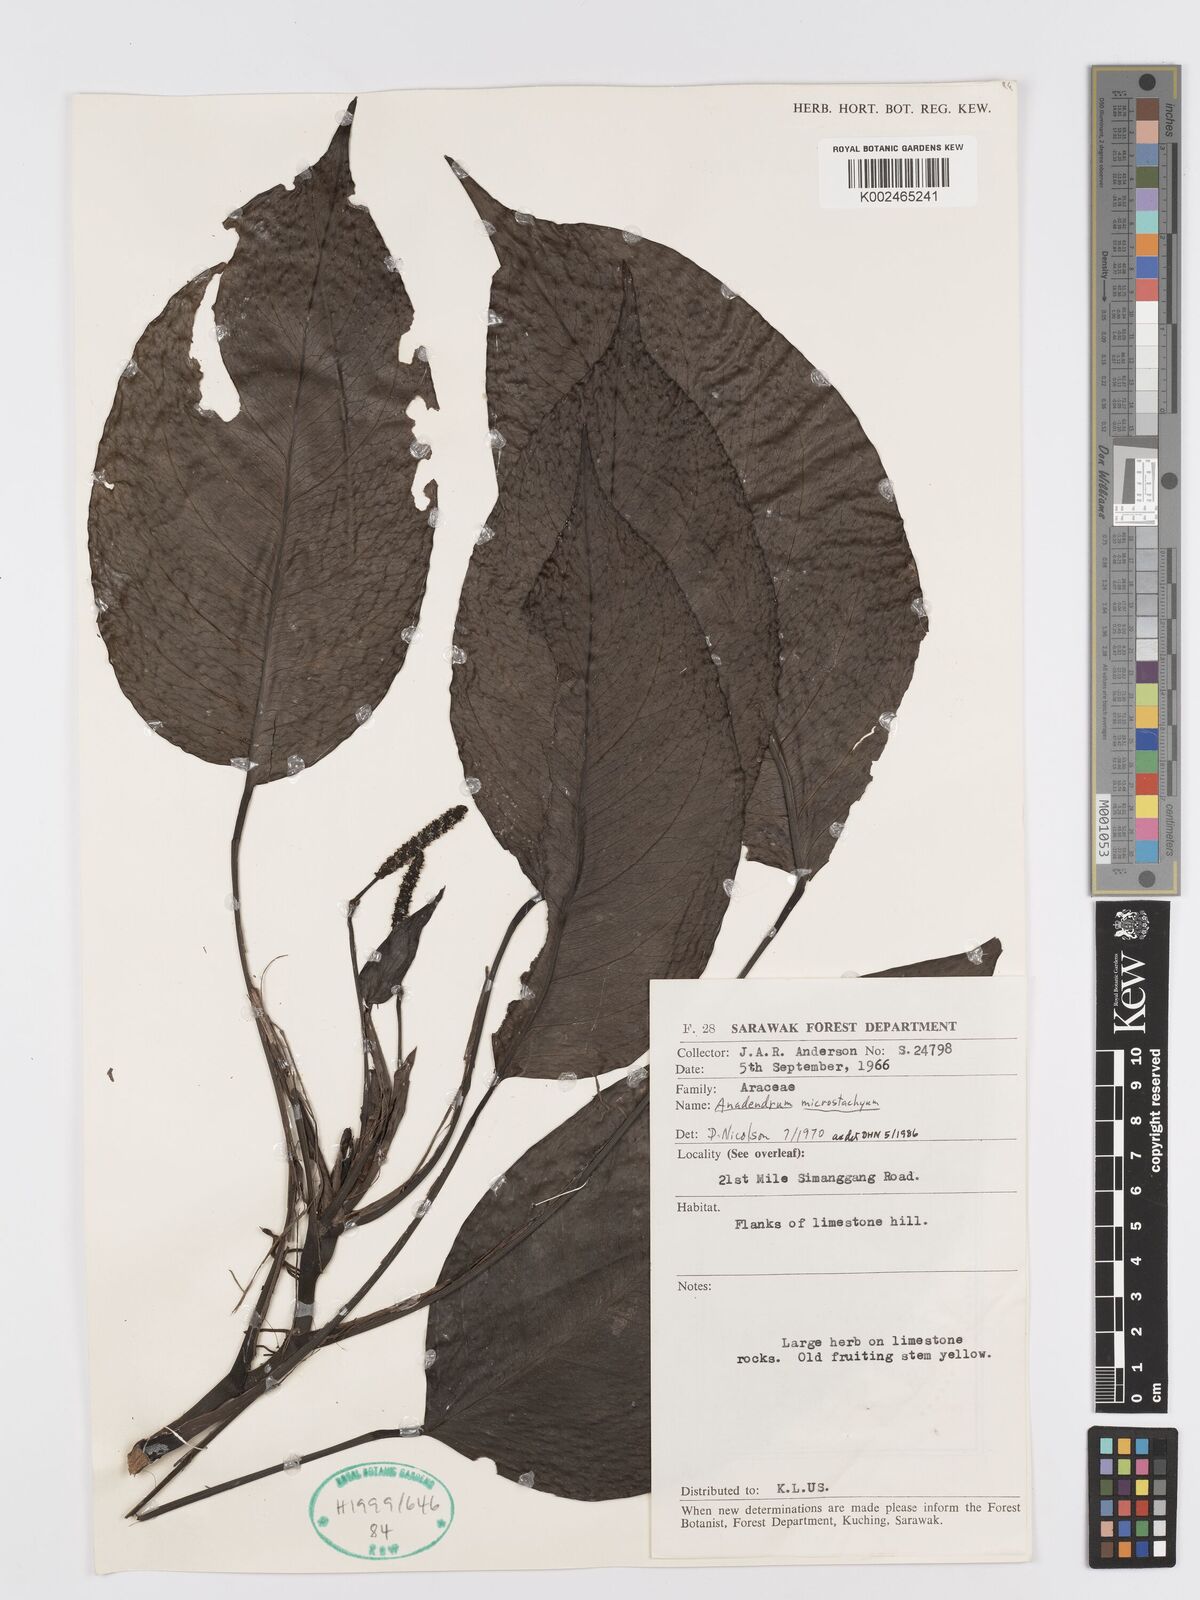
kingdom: Plantae
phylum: Tracheophyta
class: Liliopsida
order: Alismatales
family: Araceae
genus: Anadendrum
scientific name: Anadendrum microstachyum
